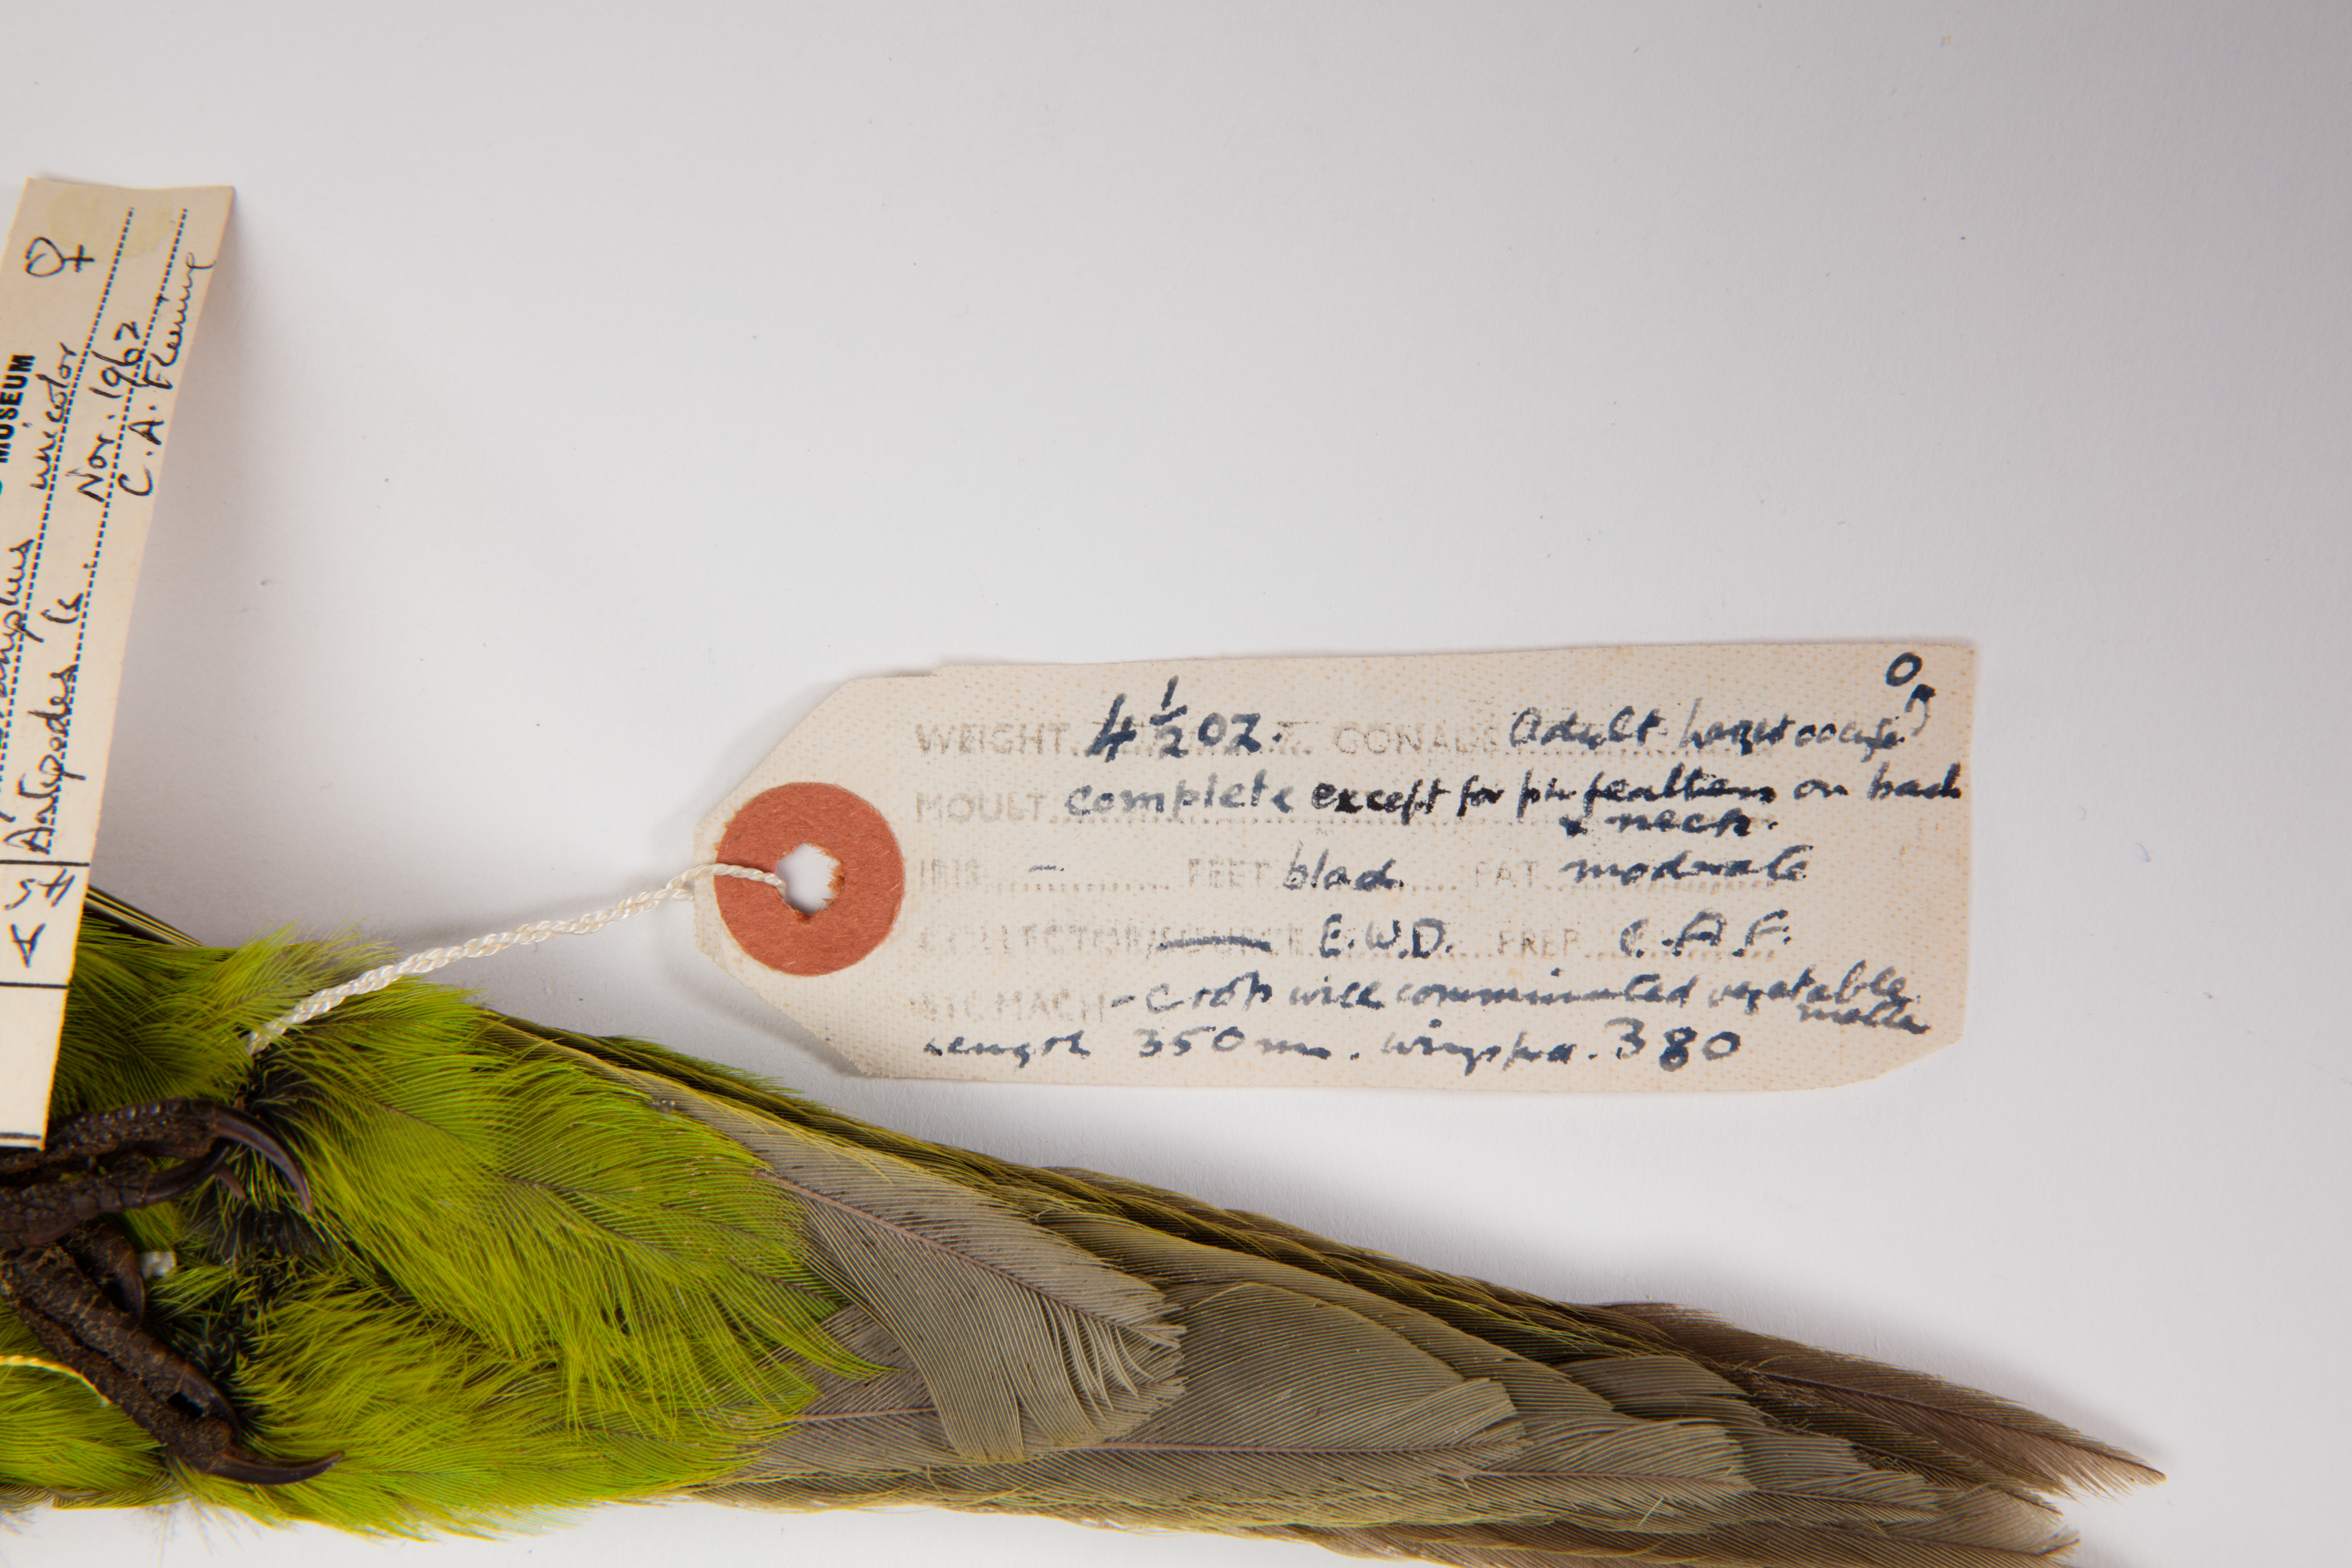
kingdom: Animalia
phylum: Chordata
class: Aves
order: Psittaciformes
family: Psittacidae
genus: Cyanoramphus
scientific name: Cyanoramphus unicolor
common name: Antipodes parakeet
